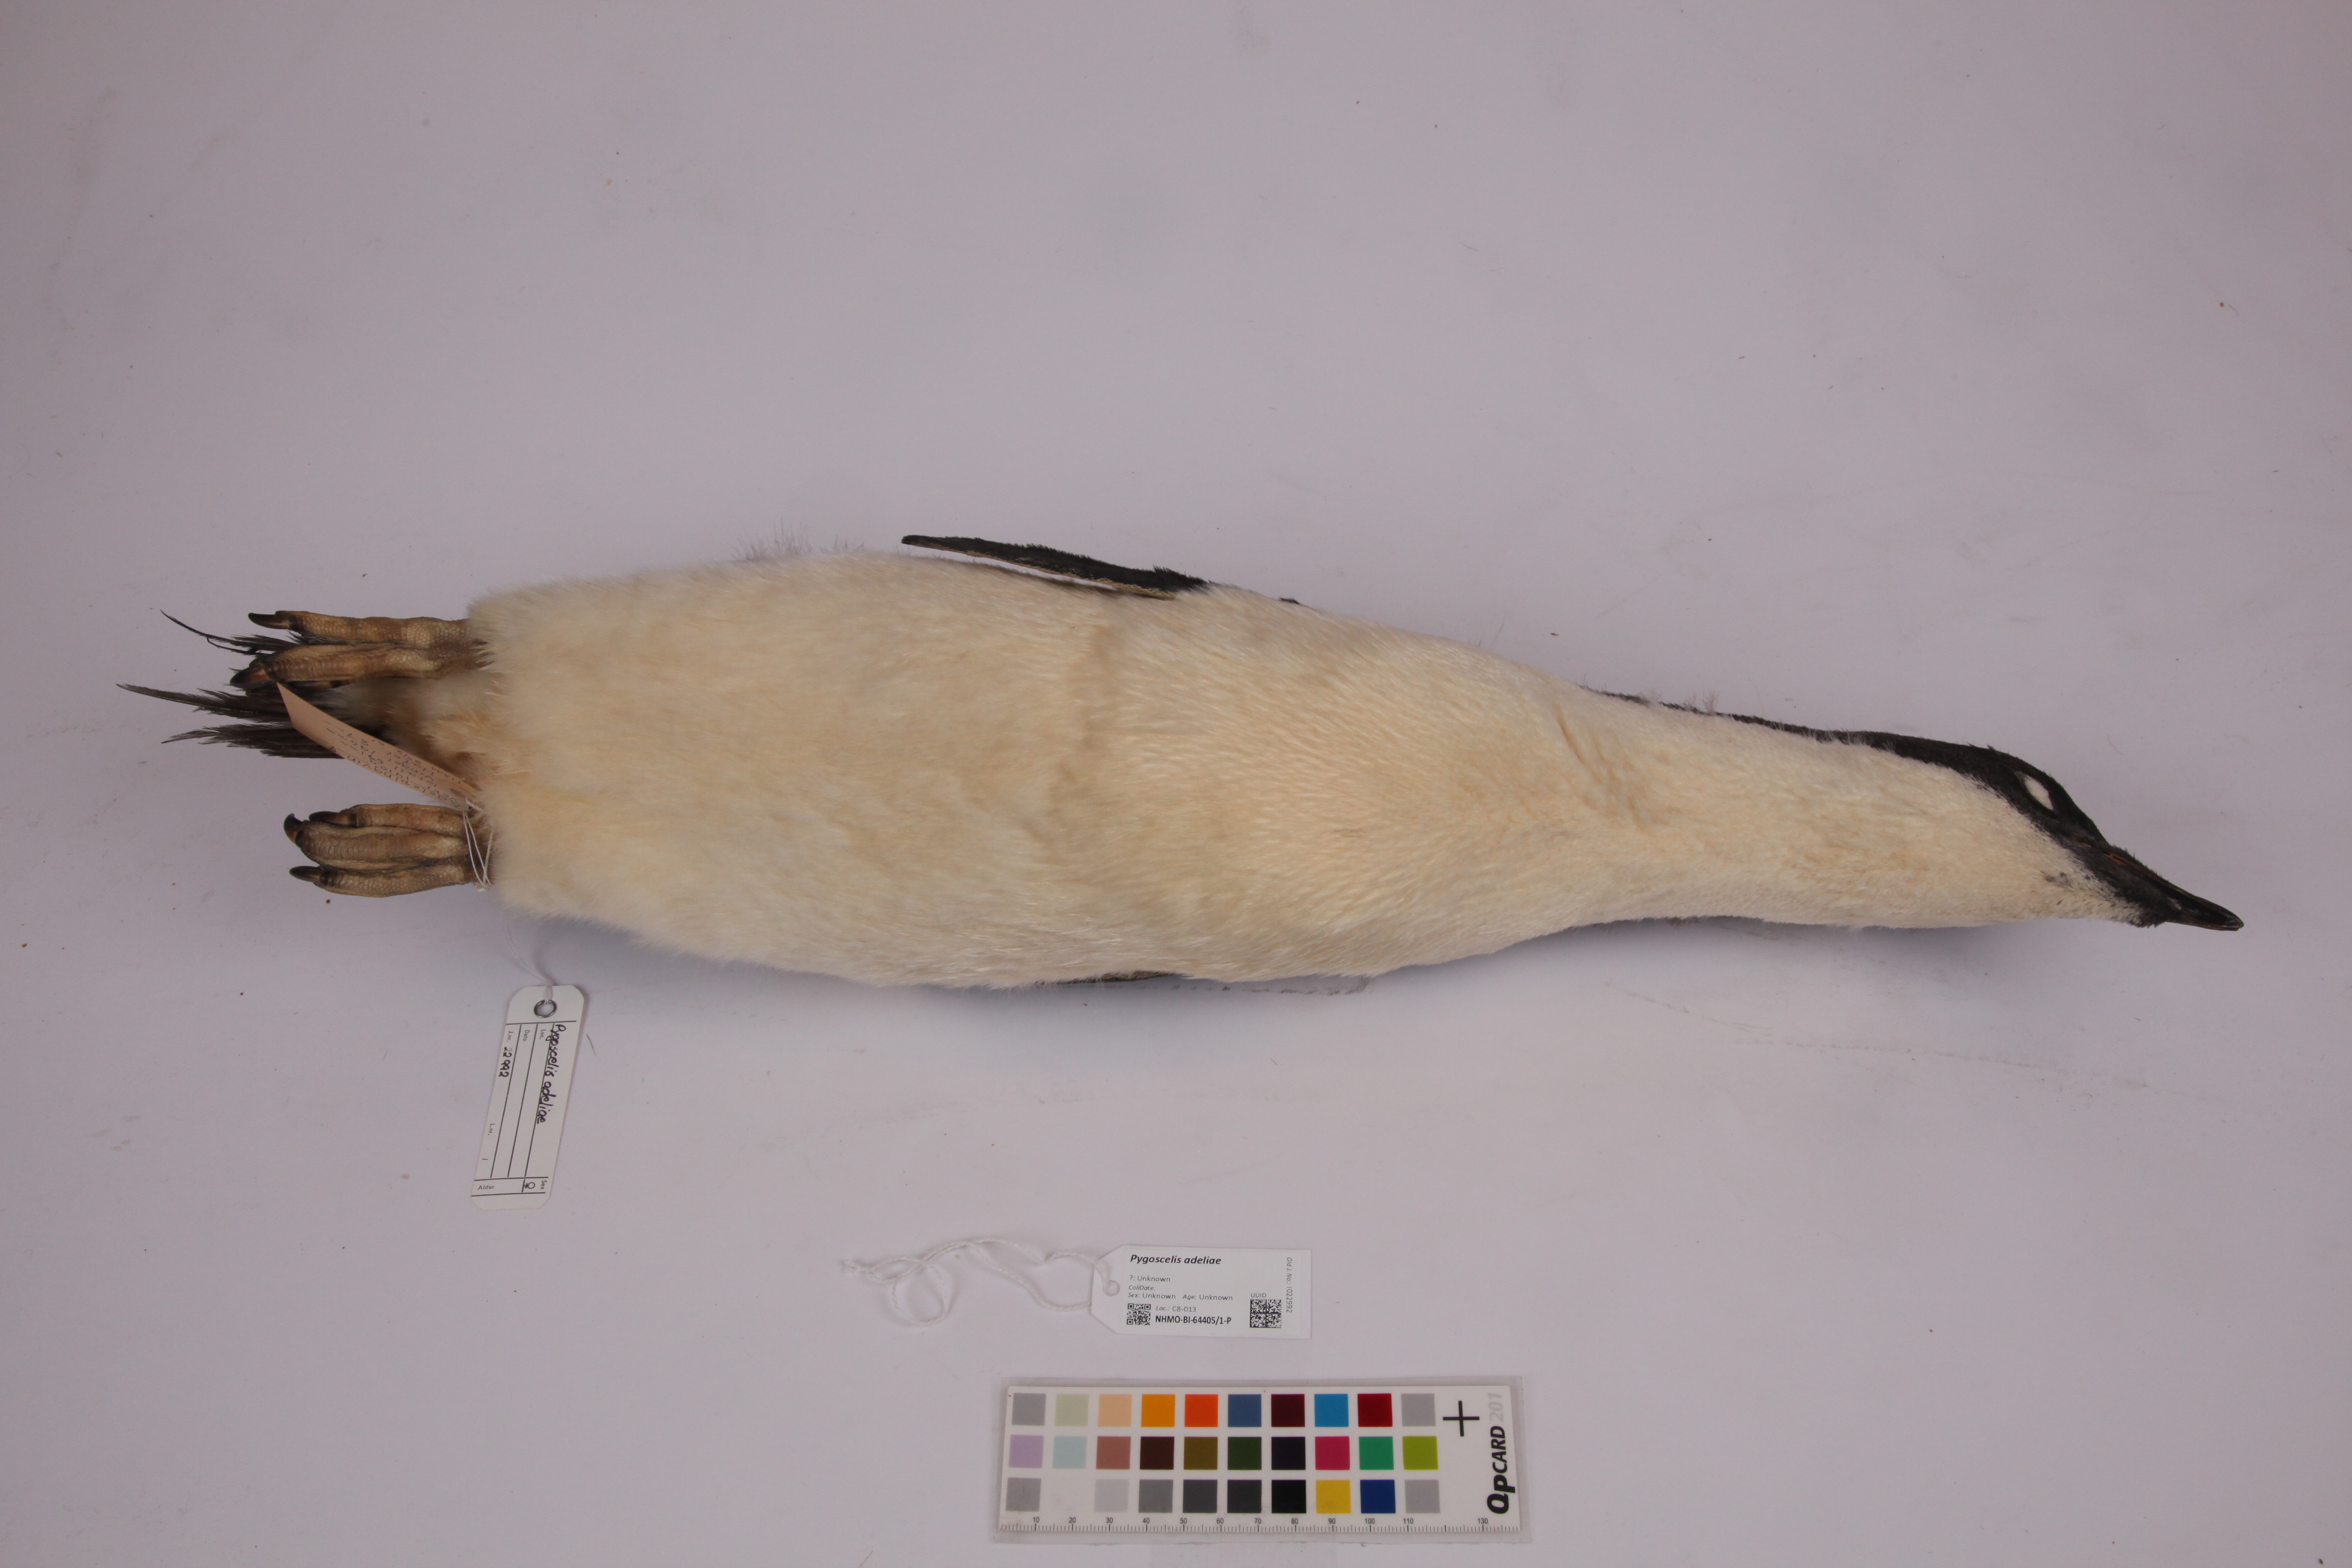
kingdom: Animalia
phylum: Chordata
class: Aves
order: Sphenisciformes
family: Spheniscidae
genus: Pygoscelis
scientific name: Pygoscelis adeliae
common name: Adelie penguin
